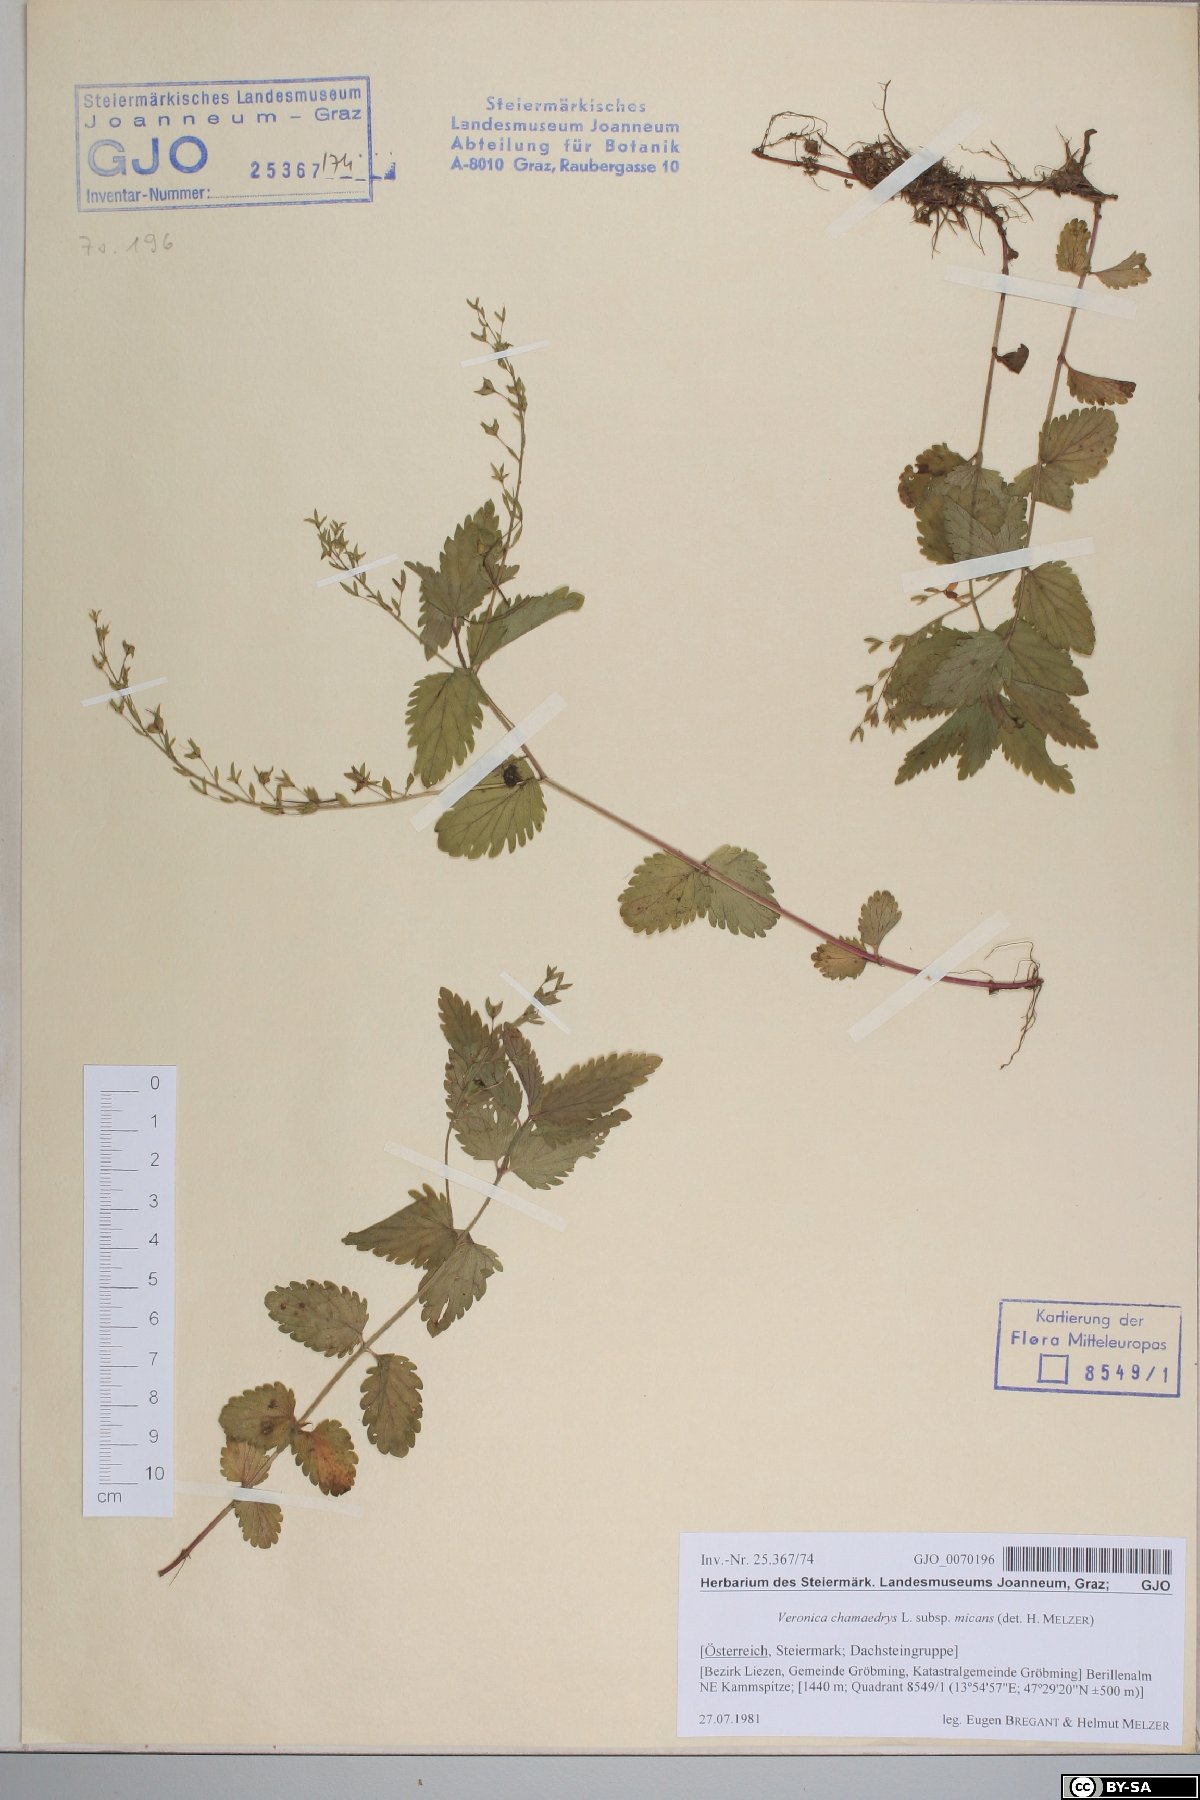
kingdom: Plantae
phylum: Tracheophyta
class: Magnoliopsida
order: Lamiales
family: Plantaginaceae
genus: Veronica
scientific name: Veronica chamaedrys
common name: Germander speedwell
